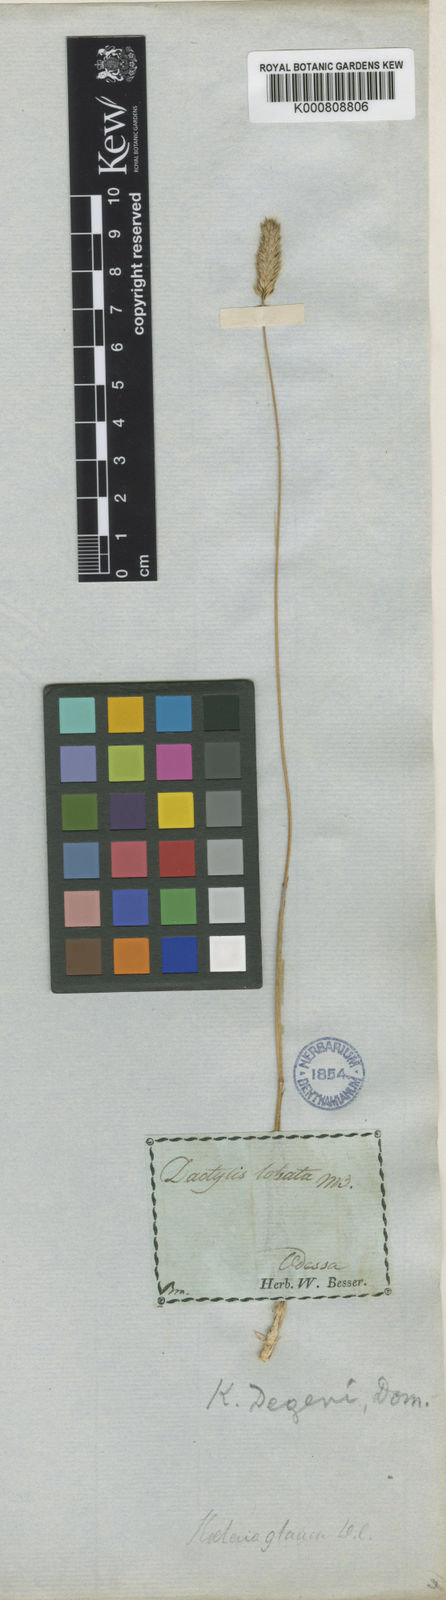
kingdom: Plantae
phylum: Tracheophyta
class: Liliopsida
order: Poales
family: Poaceae
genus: Koeleria
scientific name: Koeleria brevis
